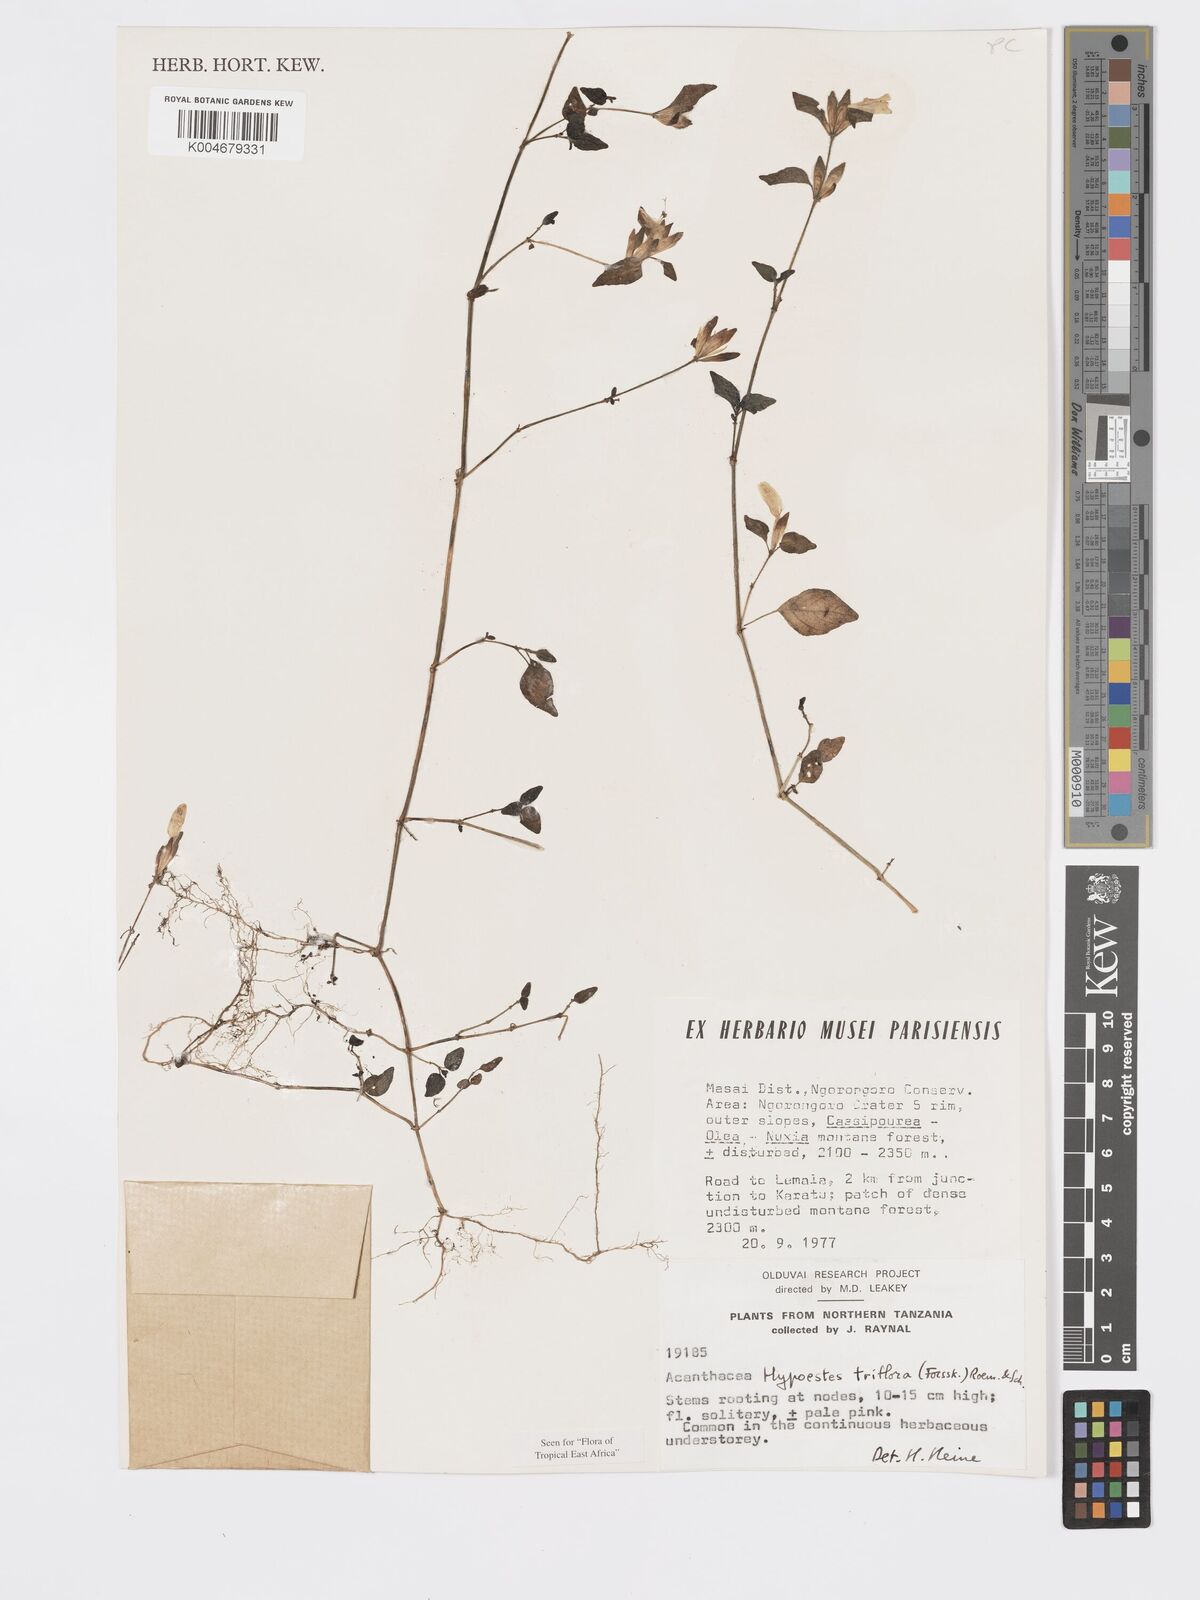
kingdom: Plantae
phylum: Tracheophyta
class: Magnoliopsida
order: Lamiales
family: Acanthaceae
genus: Hypoestes
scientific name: Hypoestes triflora
